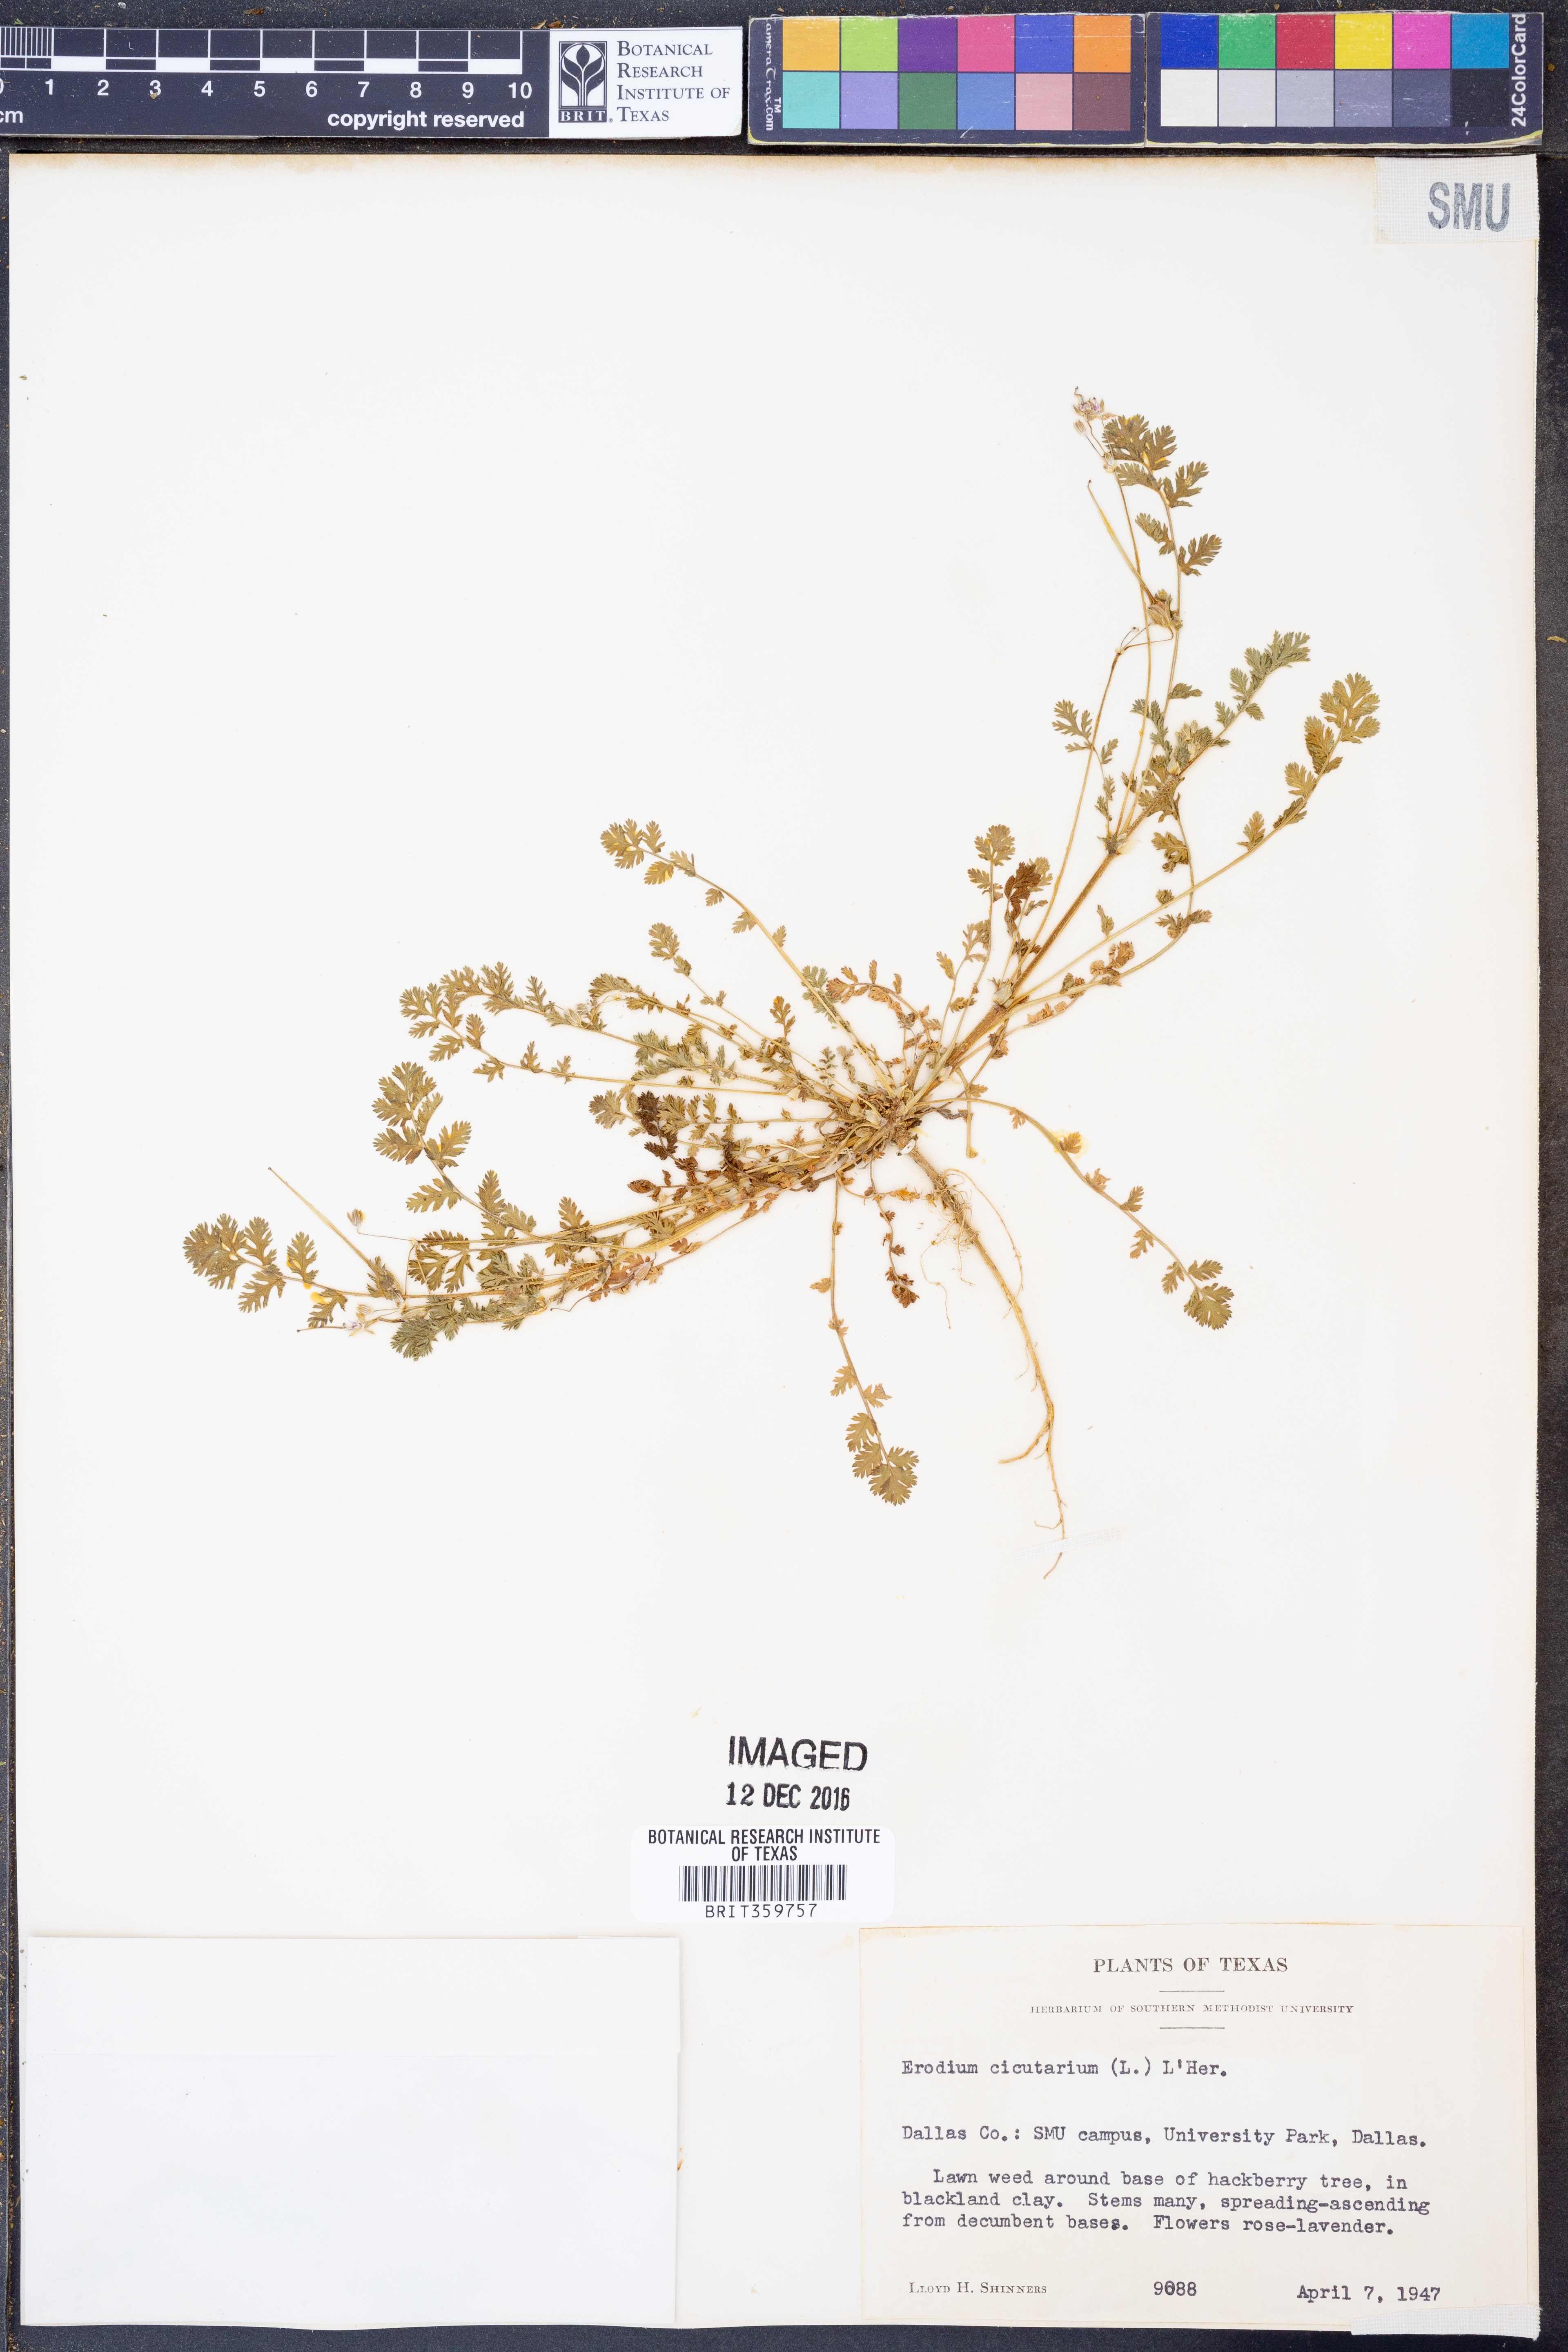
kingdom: Plantae
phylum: Tracheophyta
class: Magnoliopsida
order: Geraniales
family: Geraniaceae
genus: Erodium
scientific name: Erodium cicutarium
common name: Common stork's-bill
